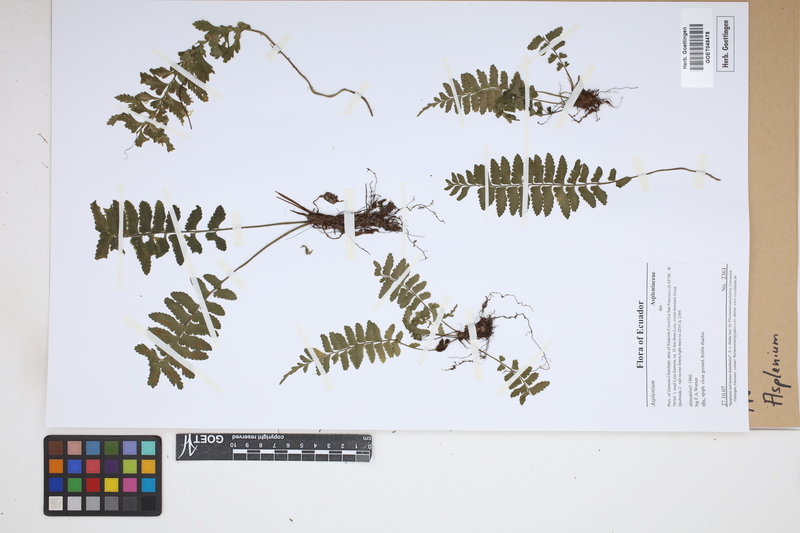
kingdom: Plantae
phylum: Tracheophyta
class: Polypodiopsida
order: Polypodiales
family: Aspleniaceae
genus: Asplenium
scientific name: Asplenium
